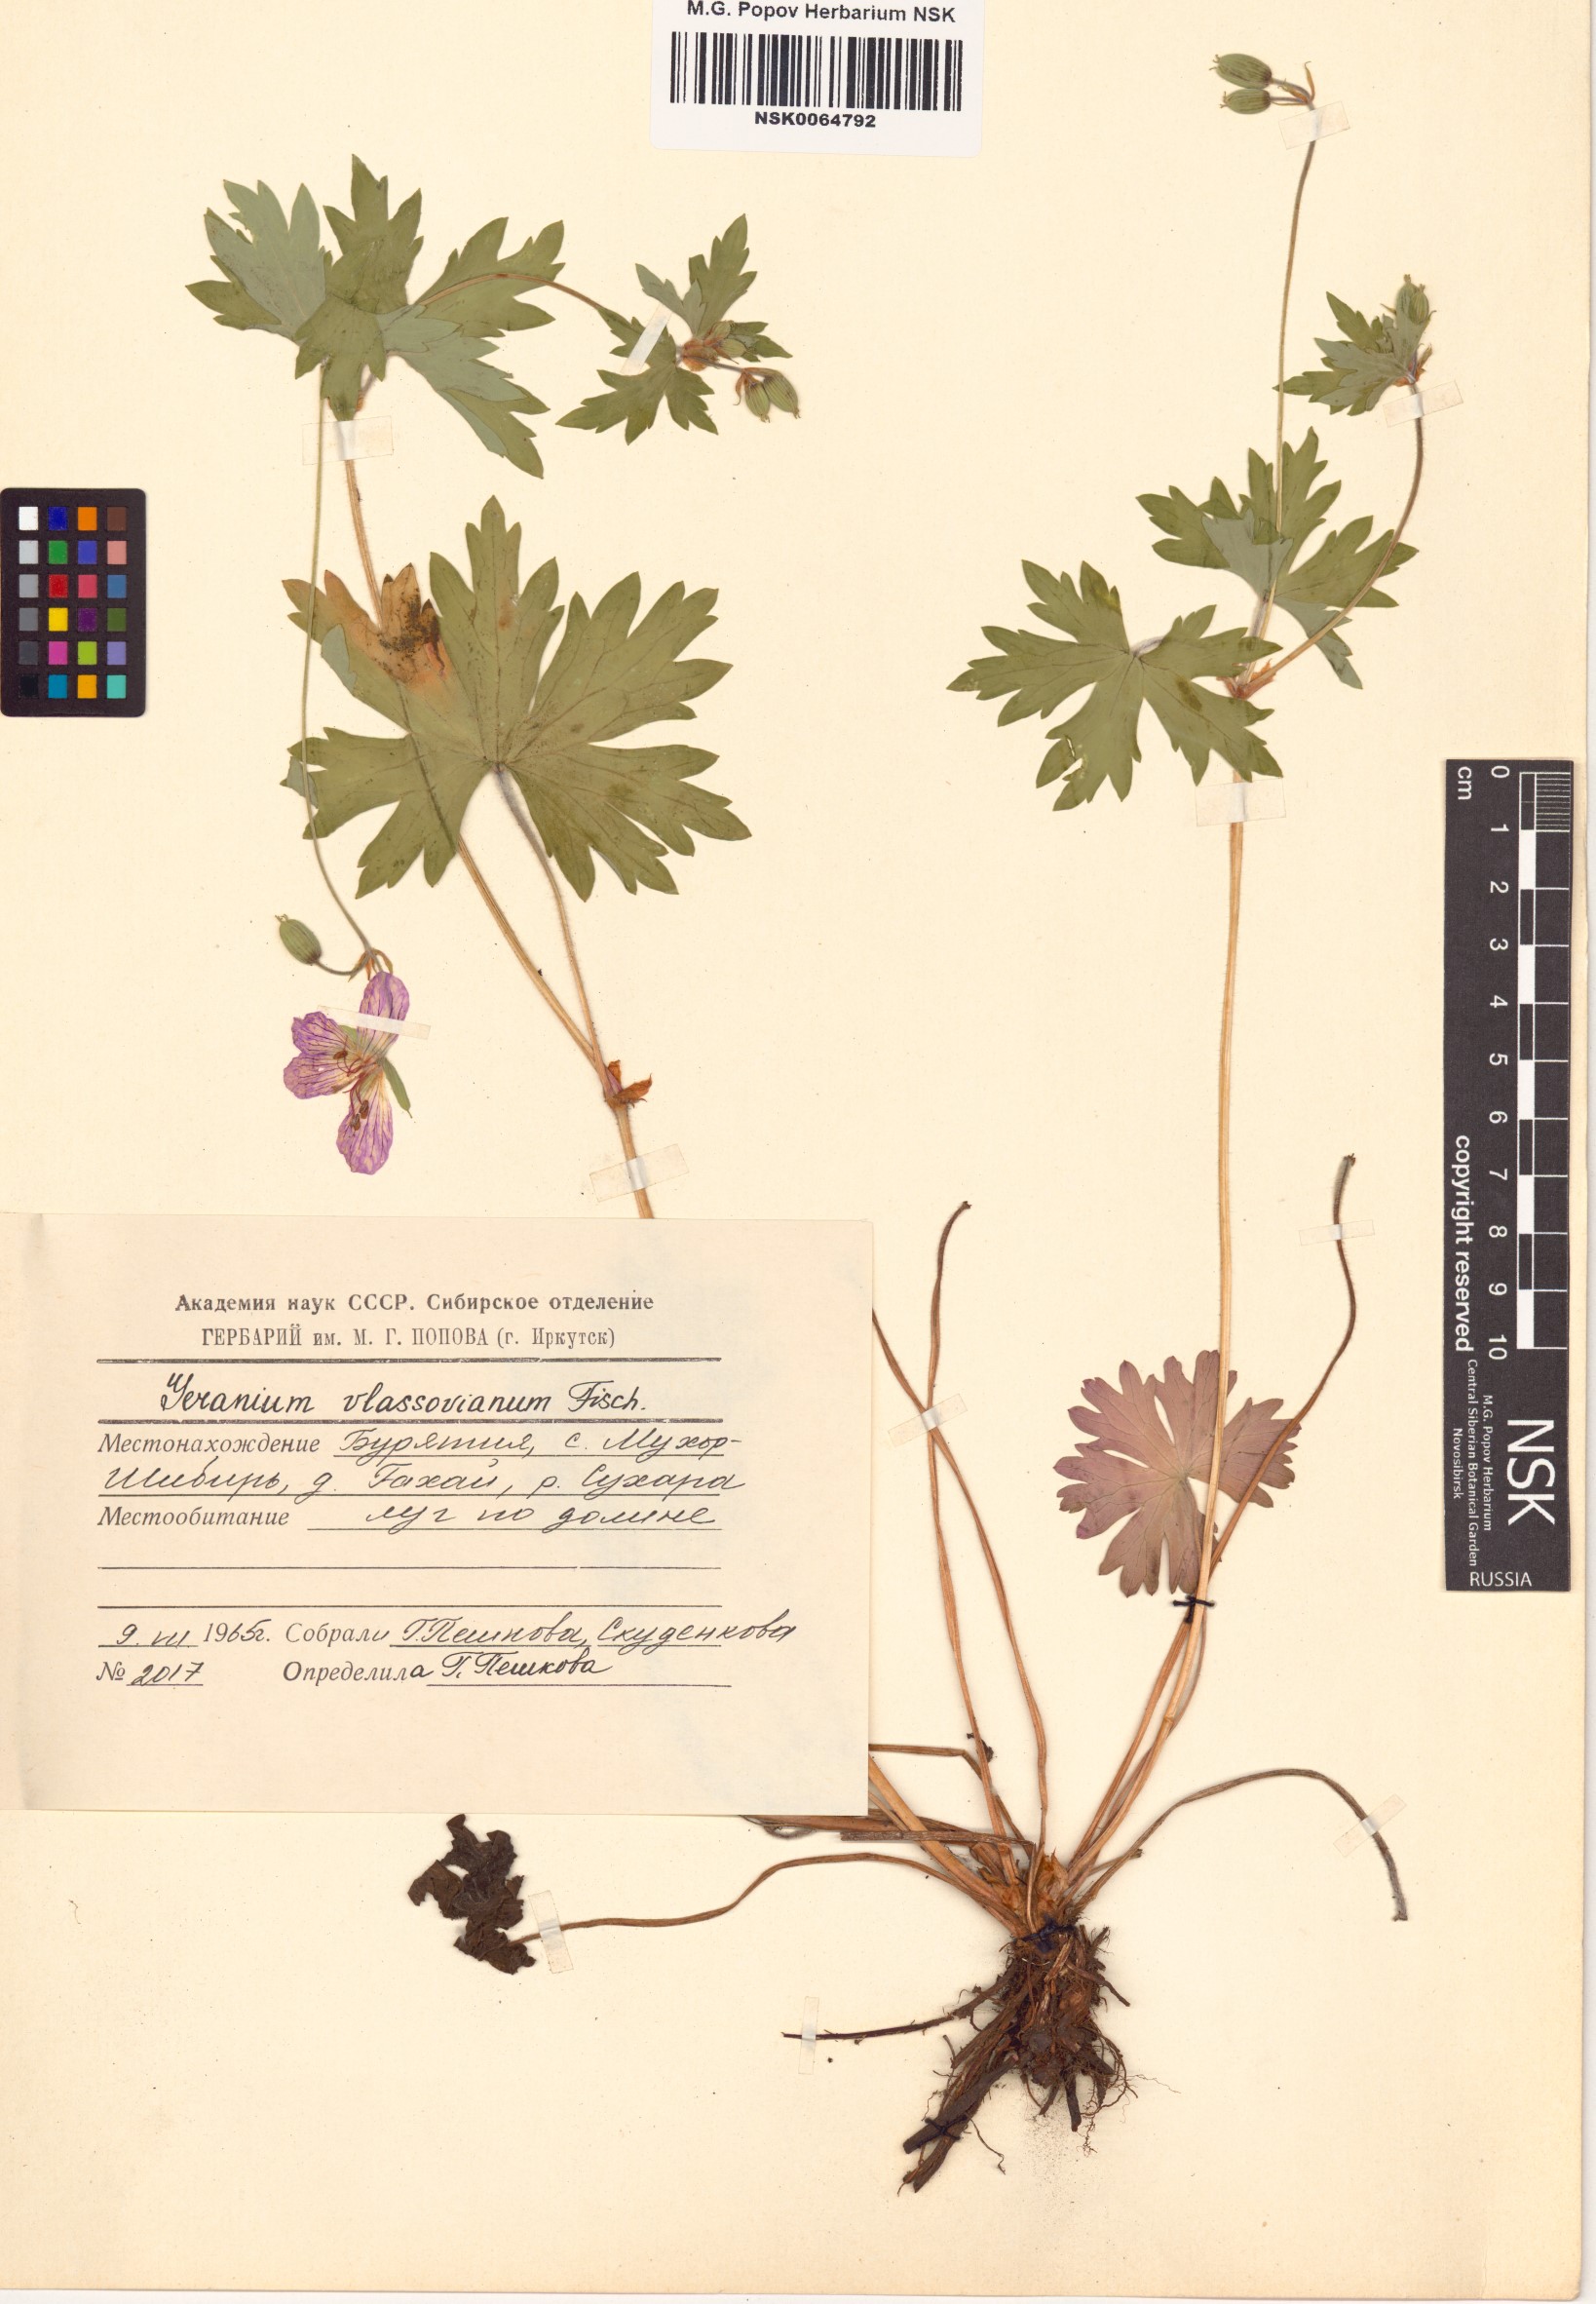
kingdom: Plantae
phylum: Tracheophyta
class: Magnoliopsida
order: Geraniales
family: Geraniaceae
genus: Geranium
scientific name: Geranium wlassovianum
